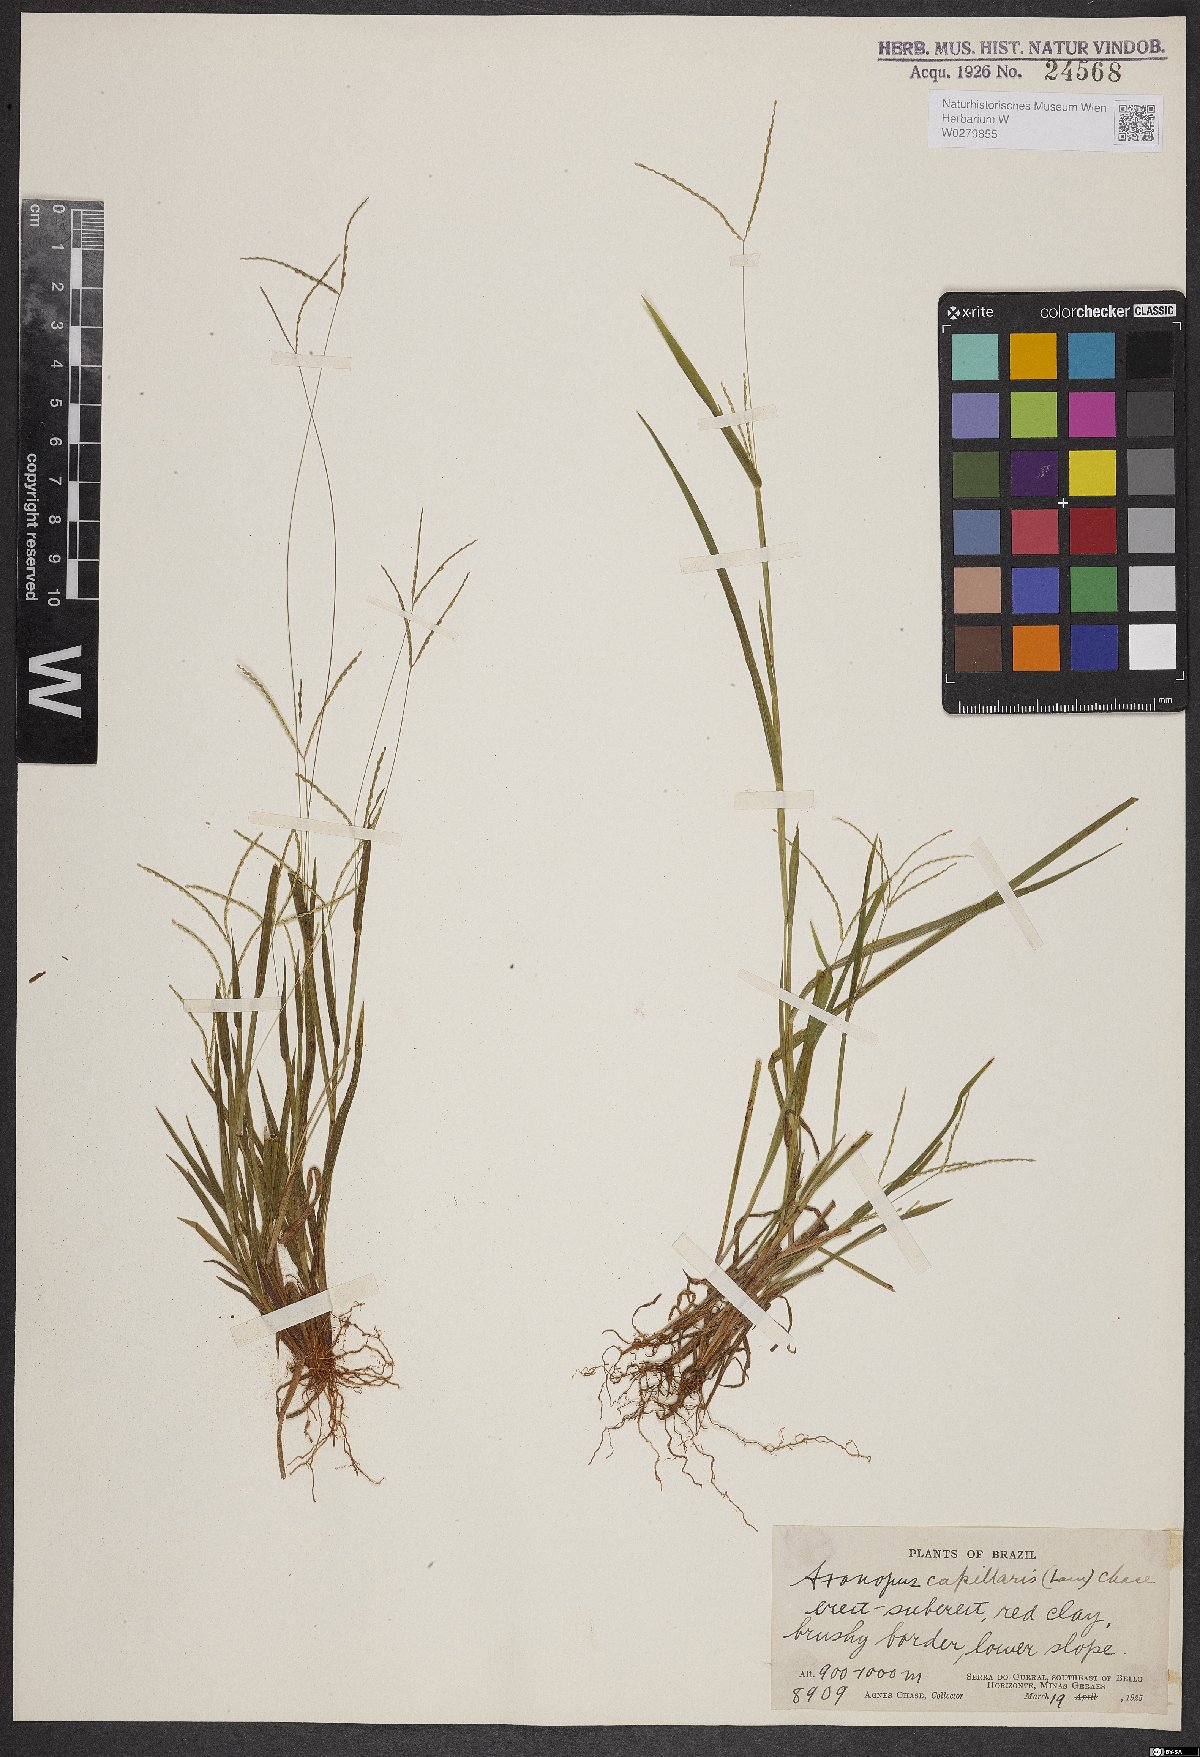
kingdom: Plantae
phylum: Tracheophyta
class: Liliopsida
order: Poales
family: Poaceae
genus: Axonopus
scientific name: Axonopus capillaris
